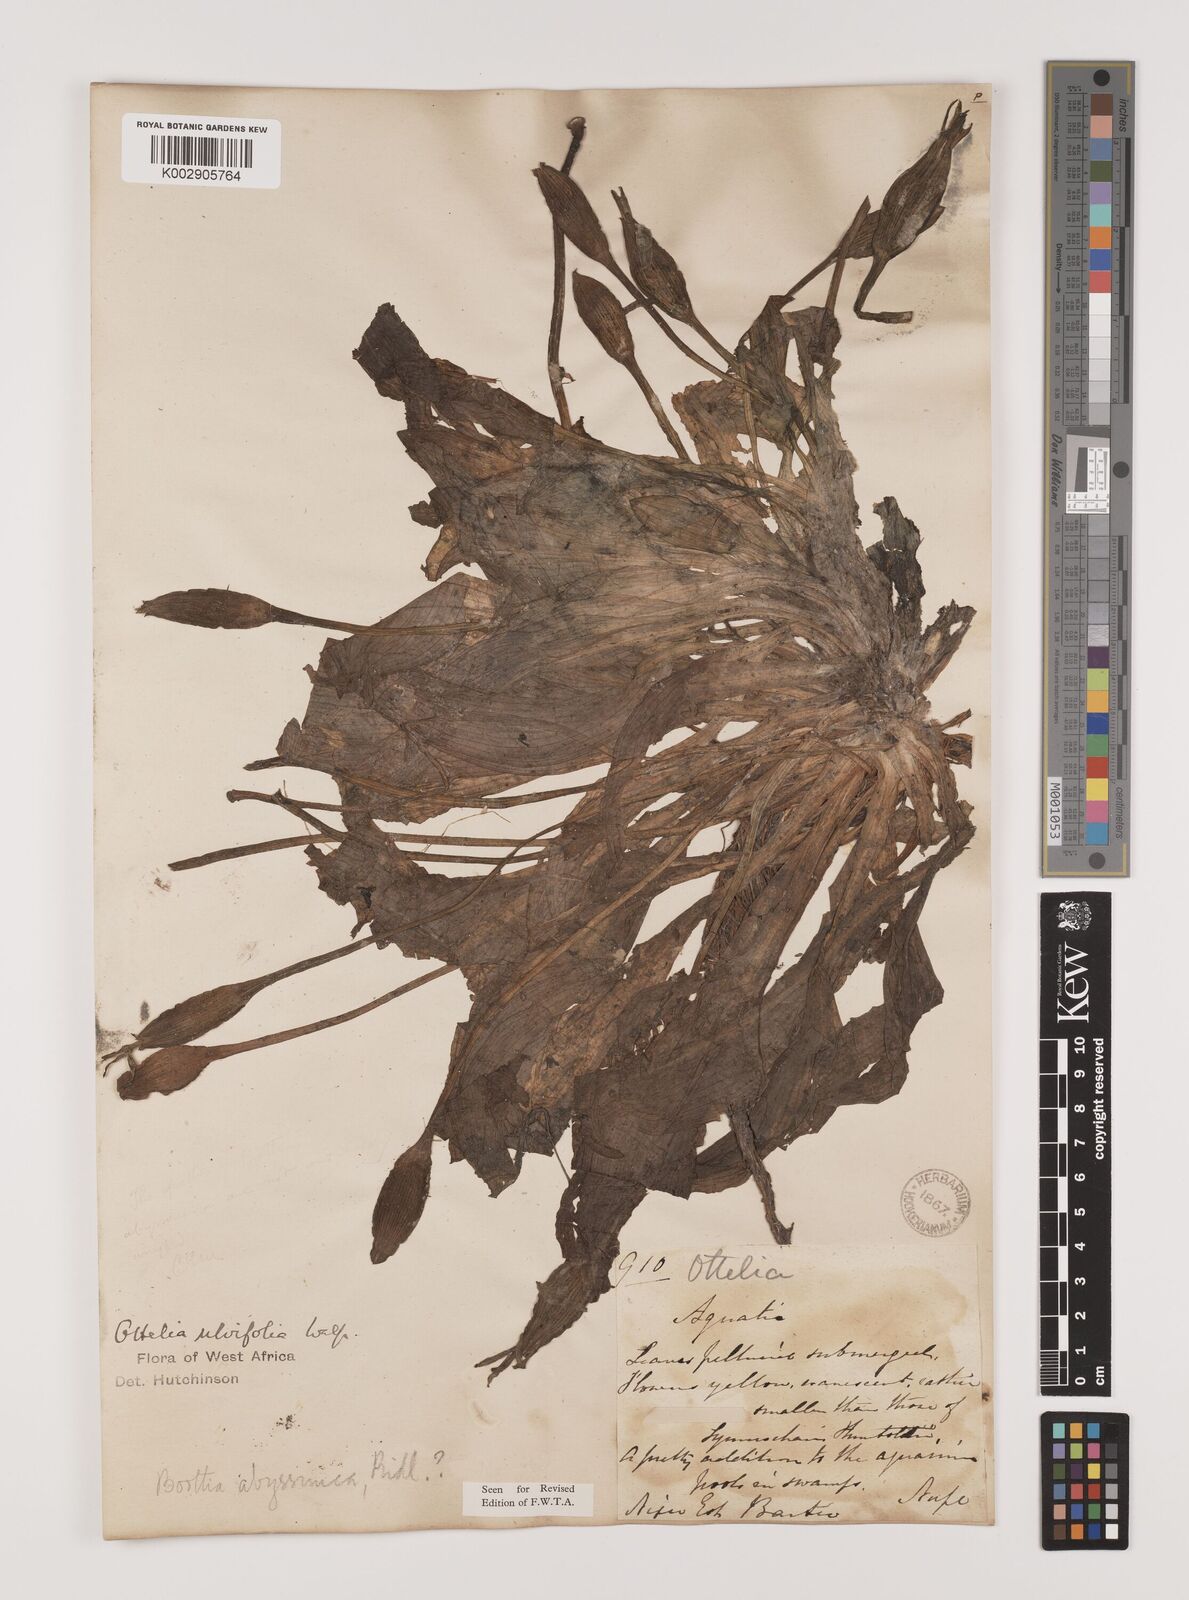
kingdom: Plantae
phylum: Tracheophyta
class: Liliopsida
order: Alismatales
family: Hydrocharitaceae
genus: Ottelia
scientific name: Ottelia ulvifolia
